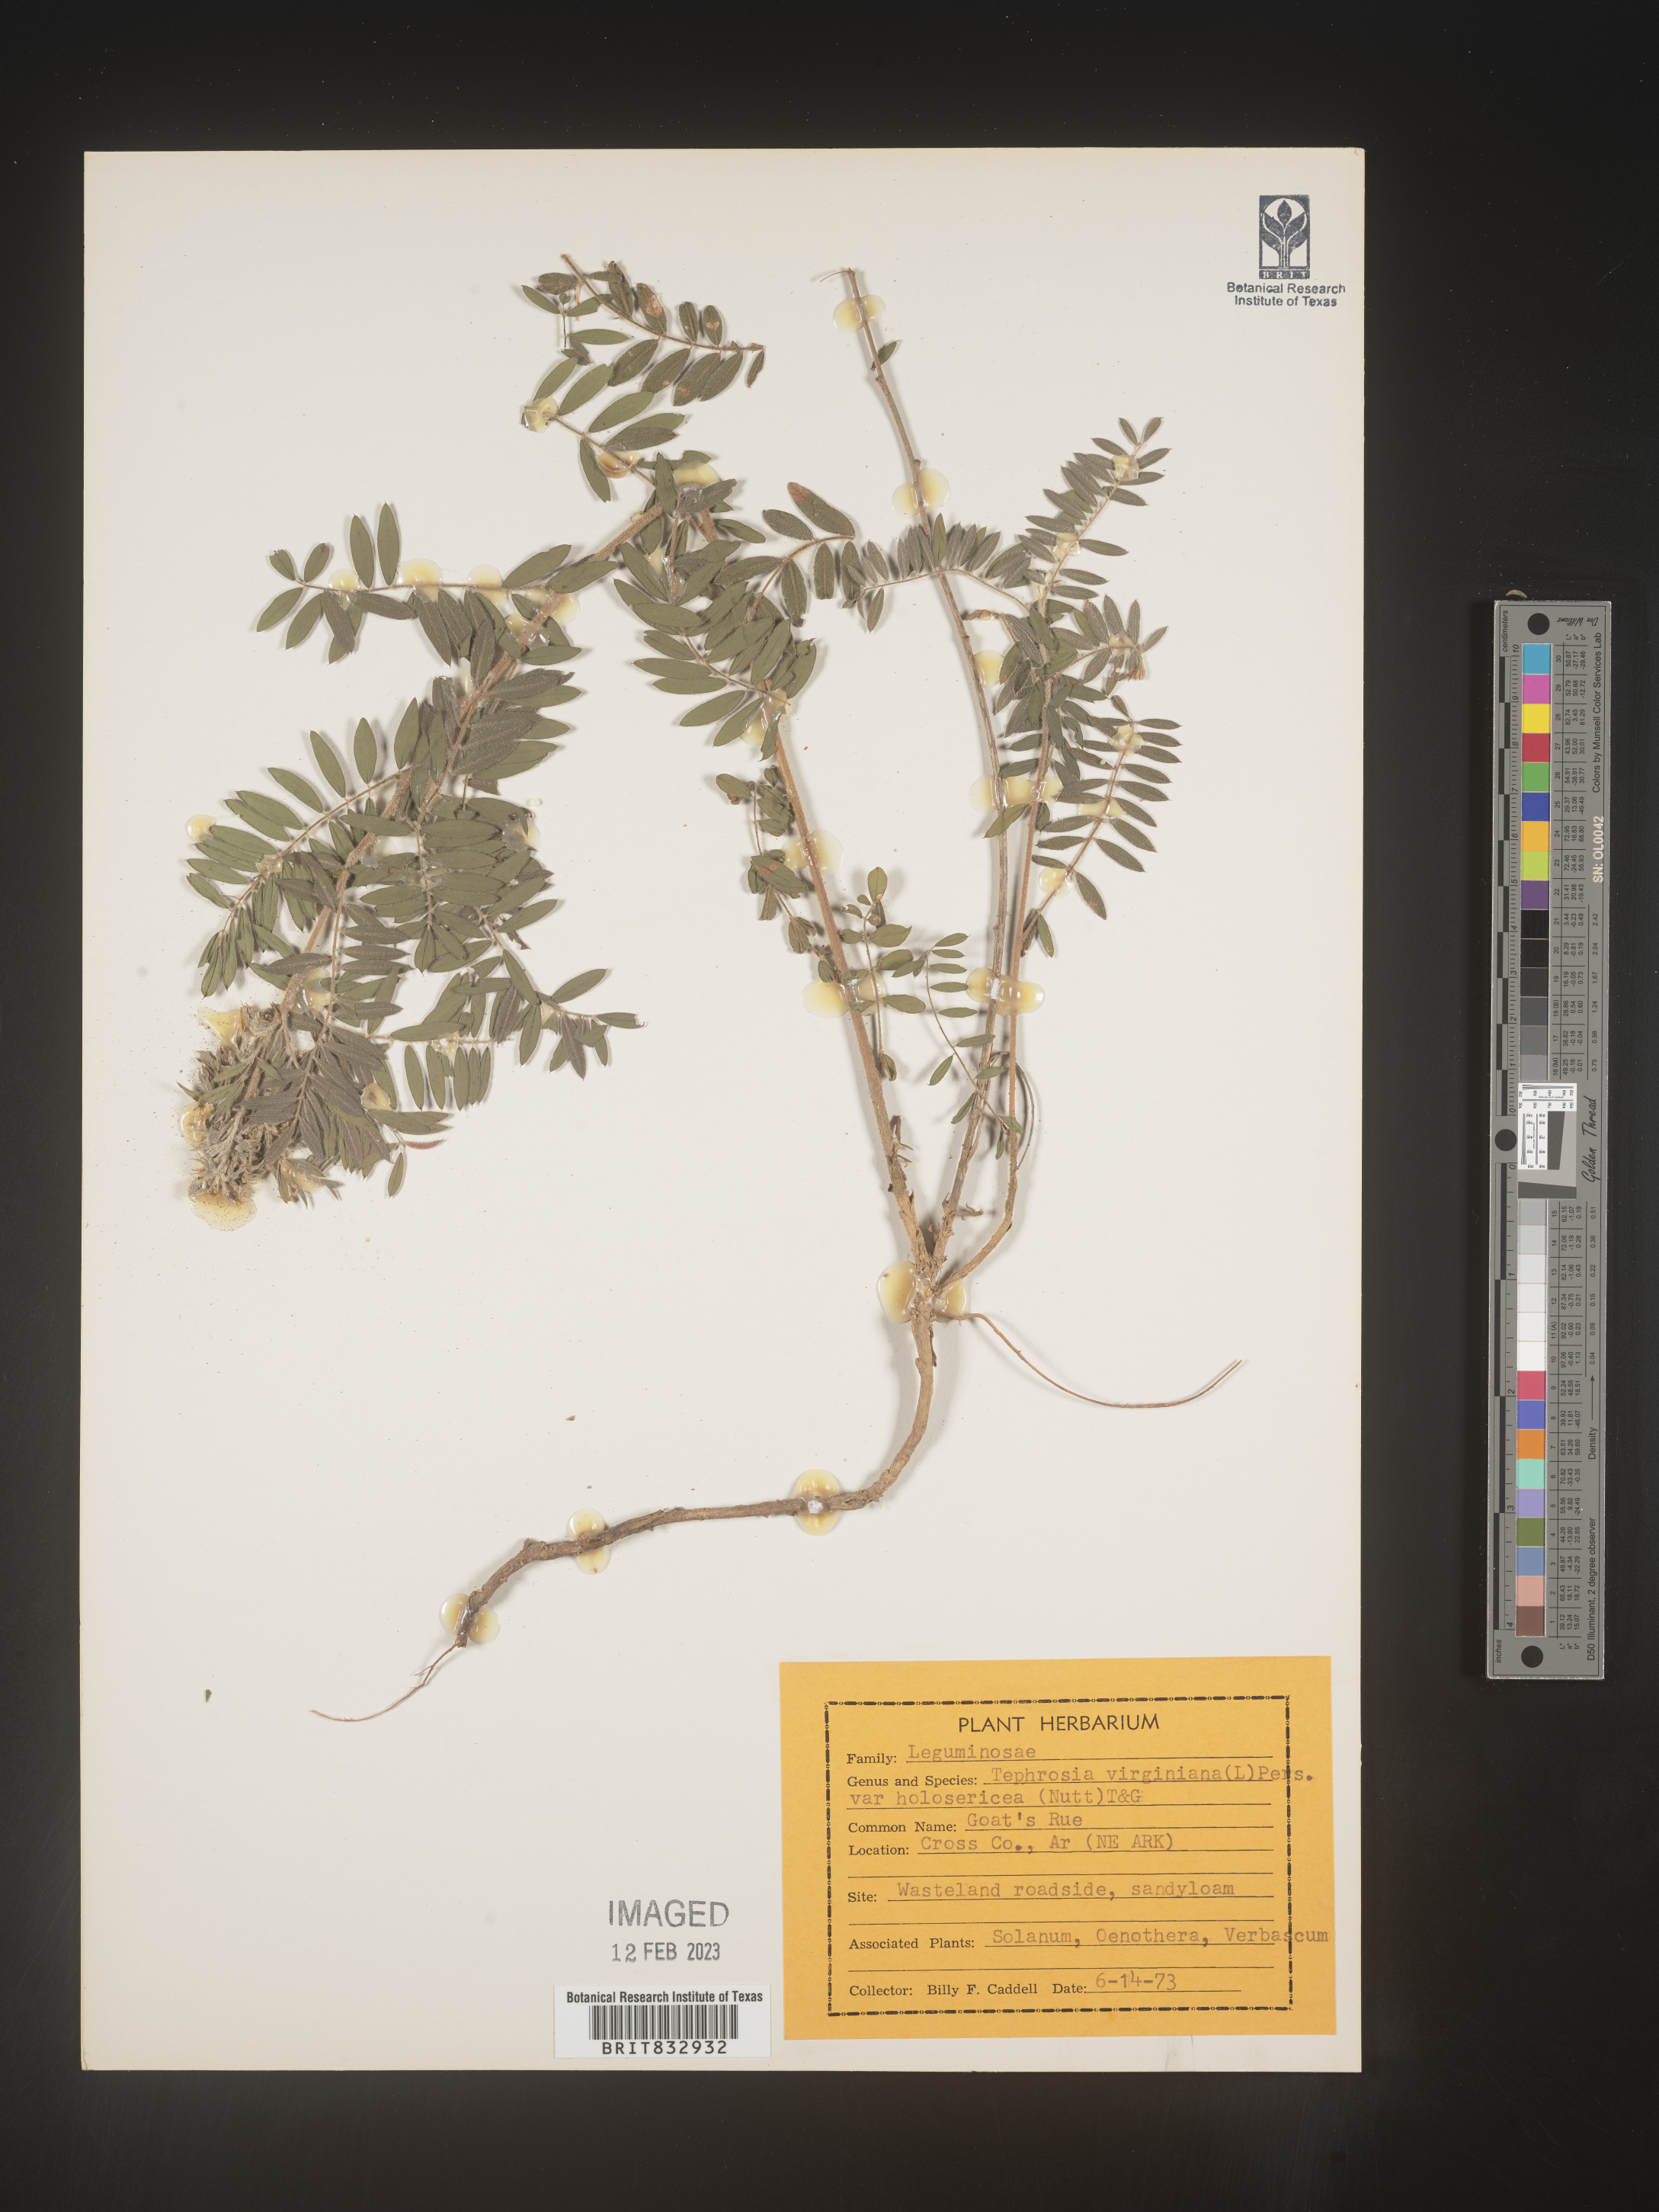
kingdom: Plantae
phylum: Tracheophyta
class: Magnoliopsida
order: Fabales
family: Fabaceae
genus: Tephrosia
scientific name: Tephrosia virginiana
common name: Rabbit-pea
